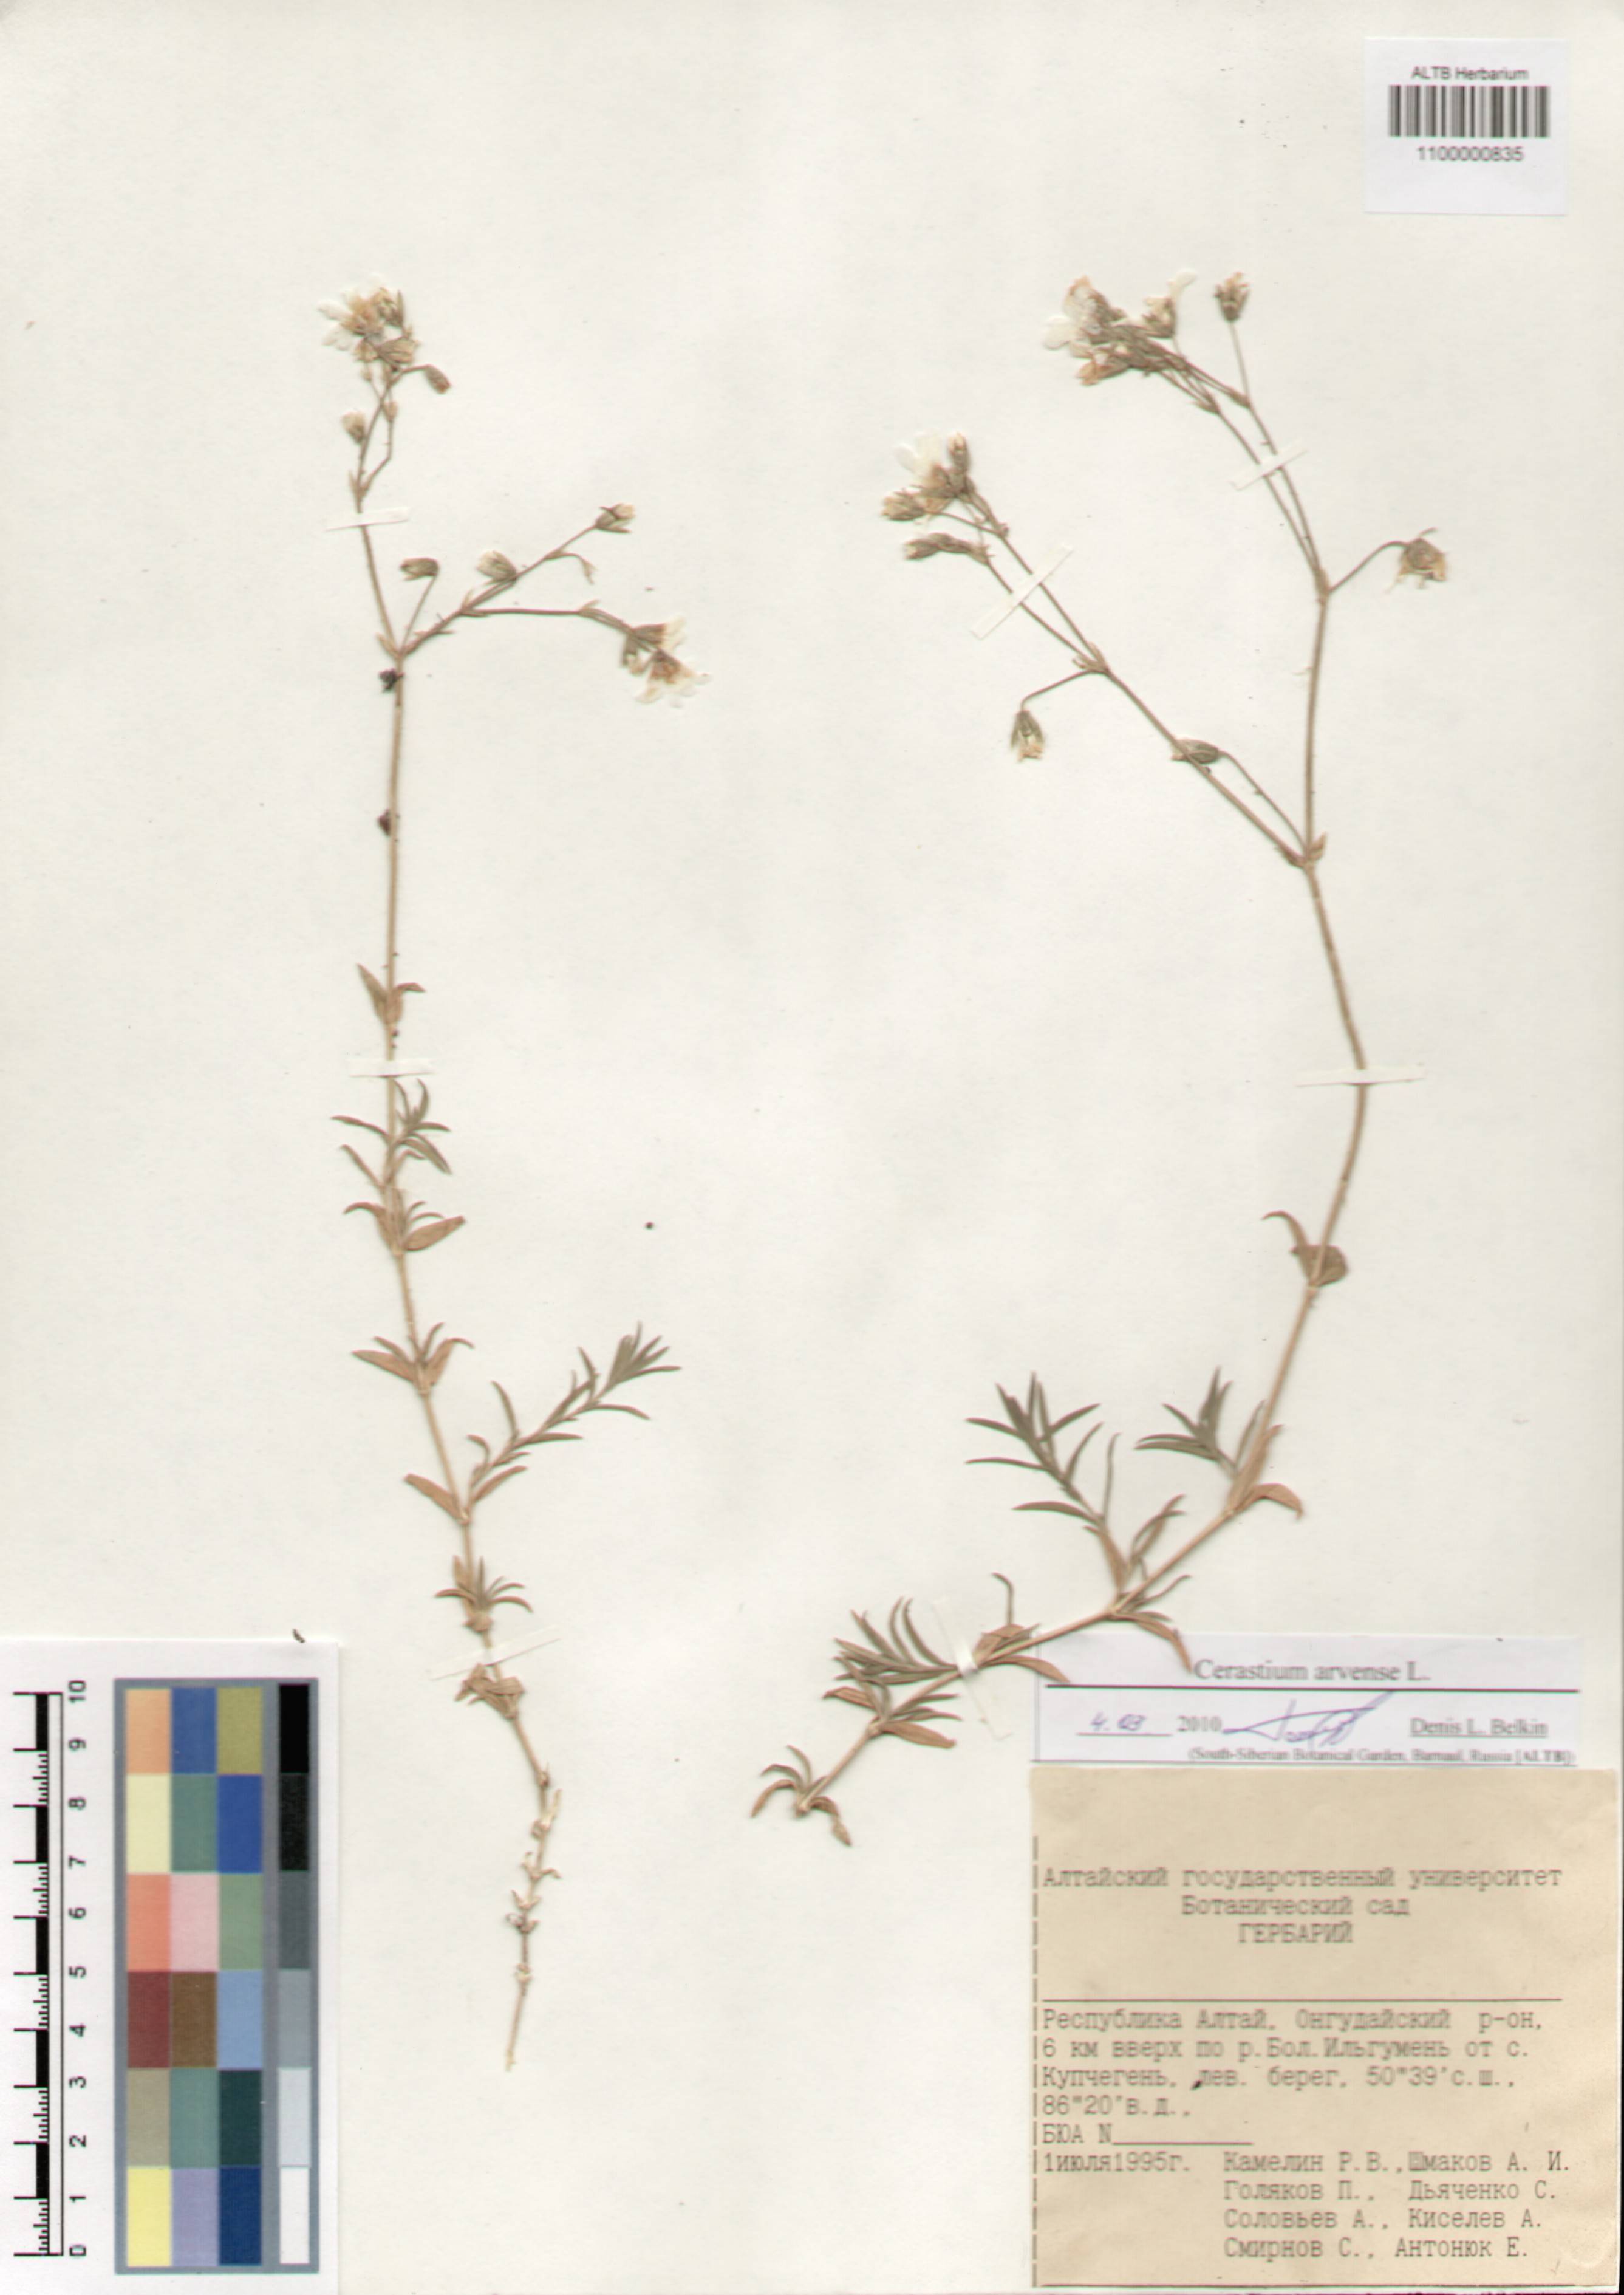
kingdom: Plantae
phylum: Tracheophyta
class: Magnoliopsida
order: Caryophyllales
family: Caryophyllaceae
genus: Cerastium
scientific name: Cerastium arvense
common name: Field mouse-ear
